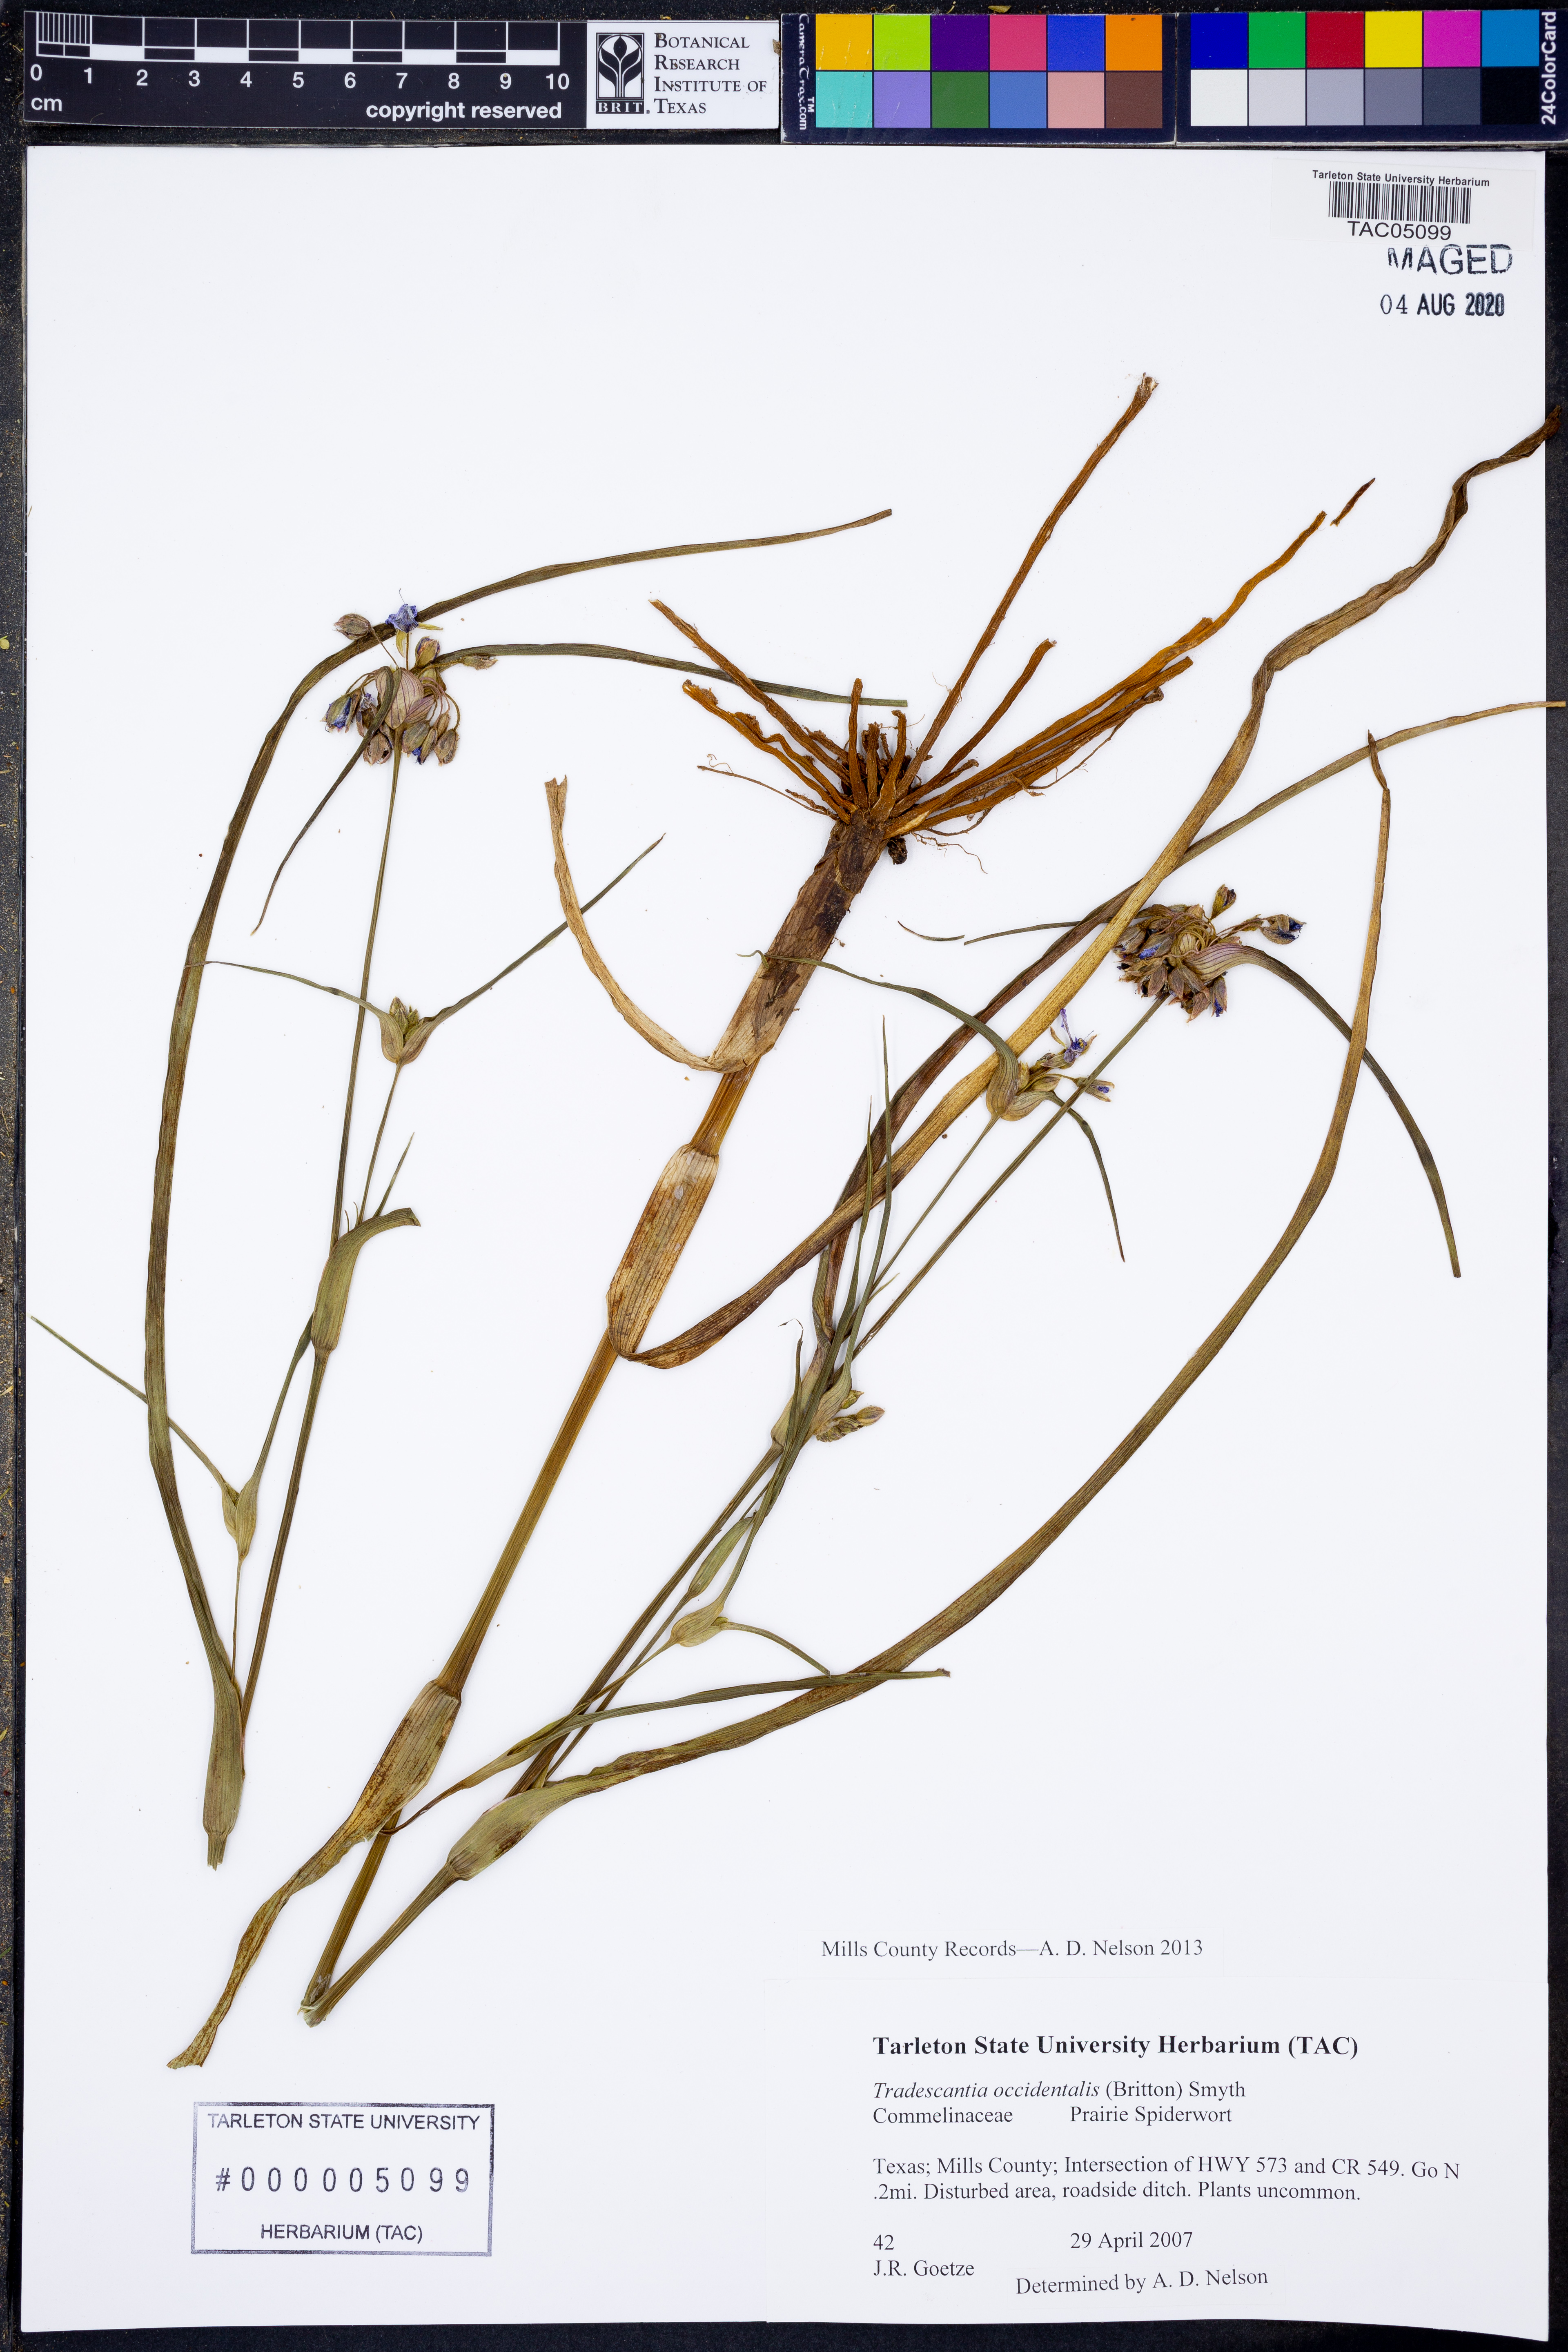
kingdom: Plantae
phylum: Tracheophyta
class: Liliopsida
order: Commelinales
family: Commelinaceae
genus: Tradescantia
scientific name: Tradescantia occidentalis
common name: Prairie spiderwort
